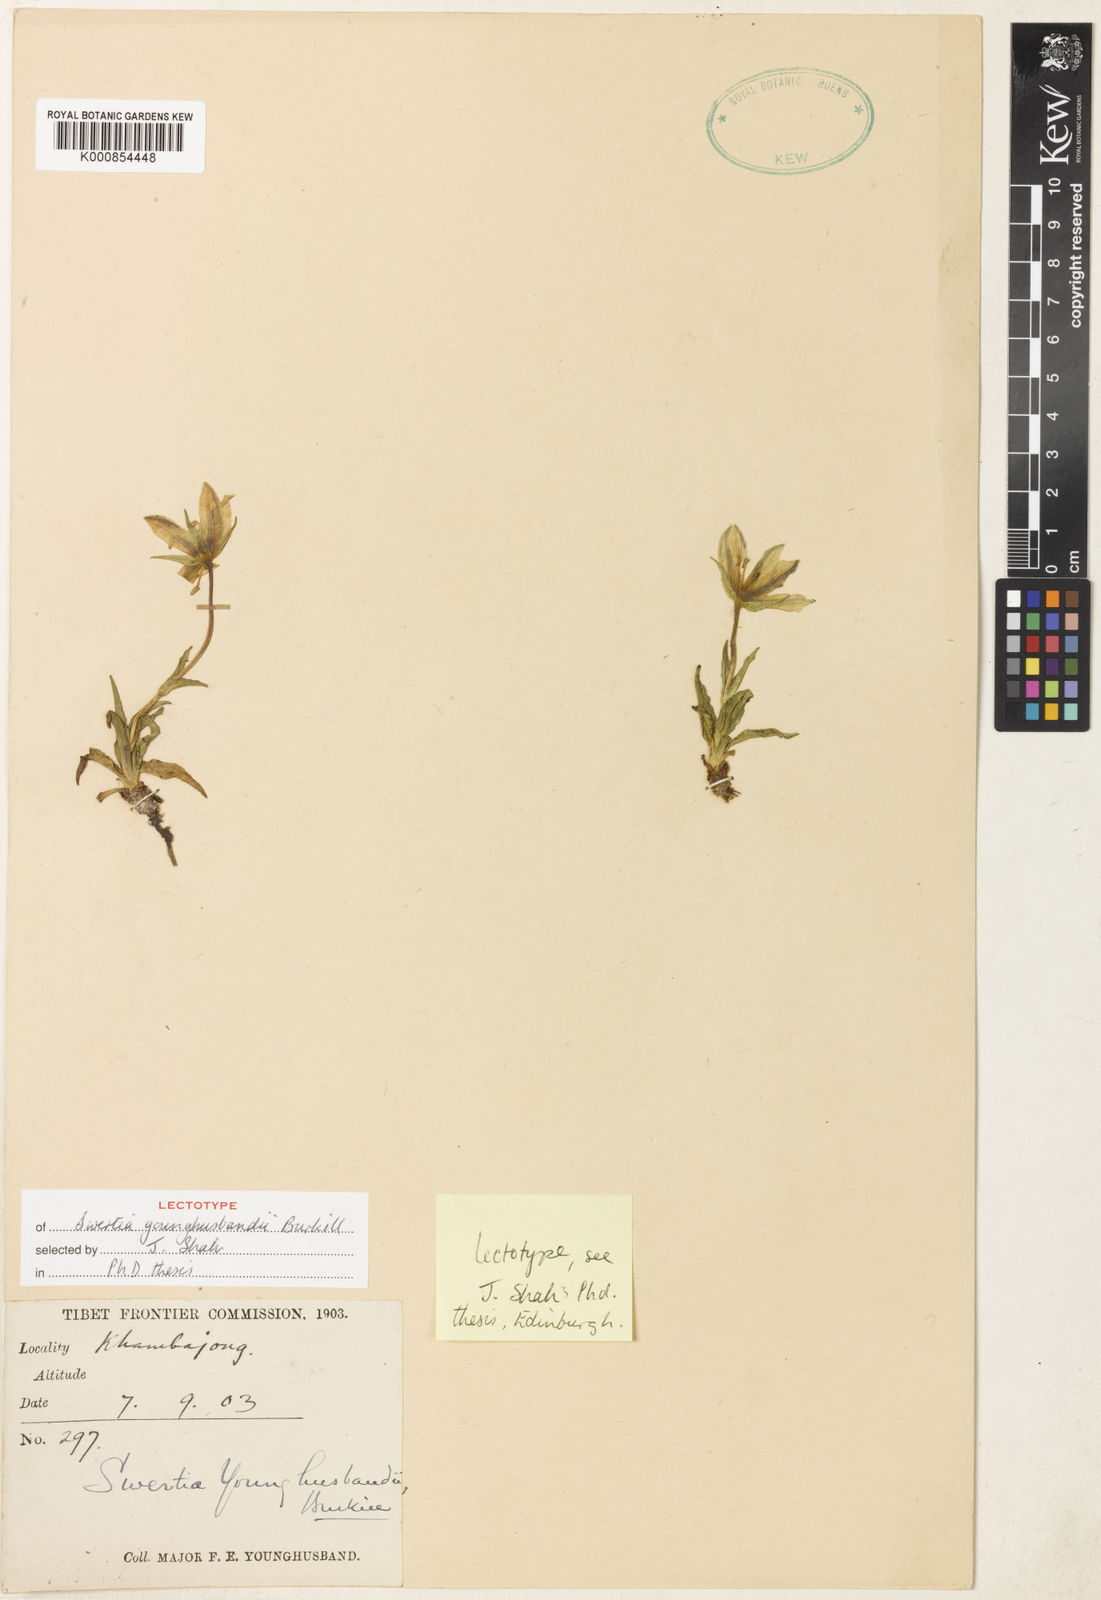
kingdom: Plantae
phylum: Tracheophyta
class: Magnoliopsida
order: Gentianales
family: Gentianaceae
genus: Swertia
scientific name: Swertia younghusbandii
